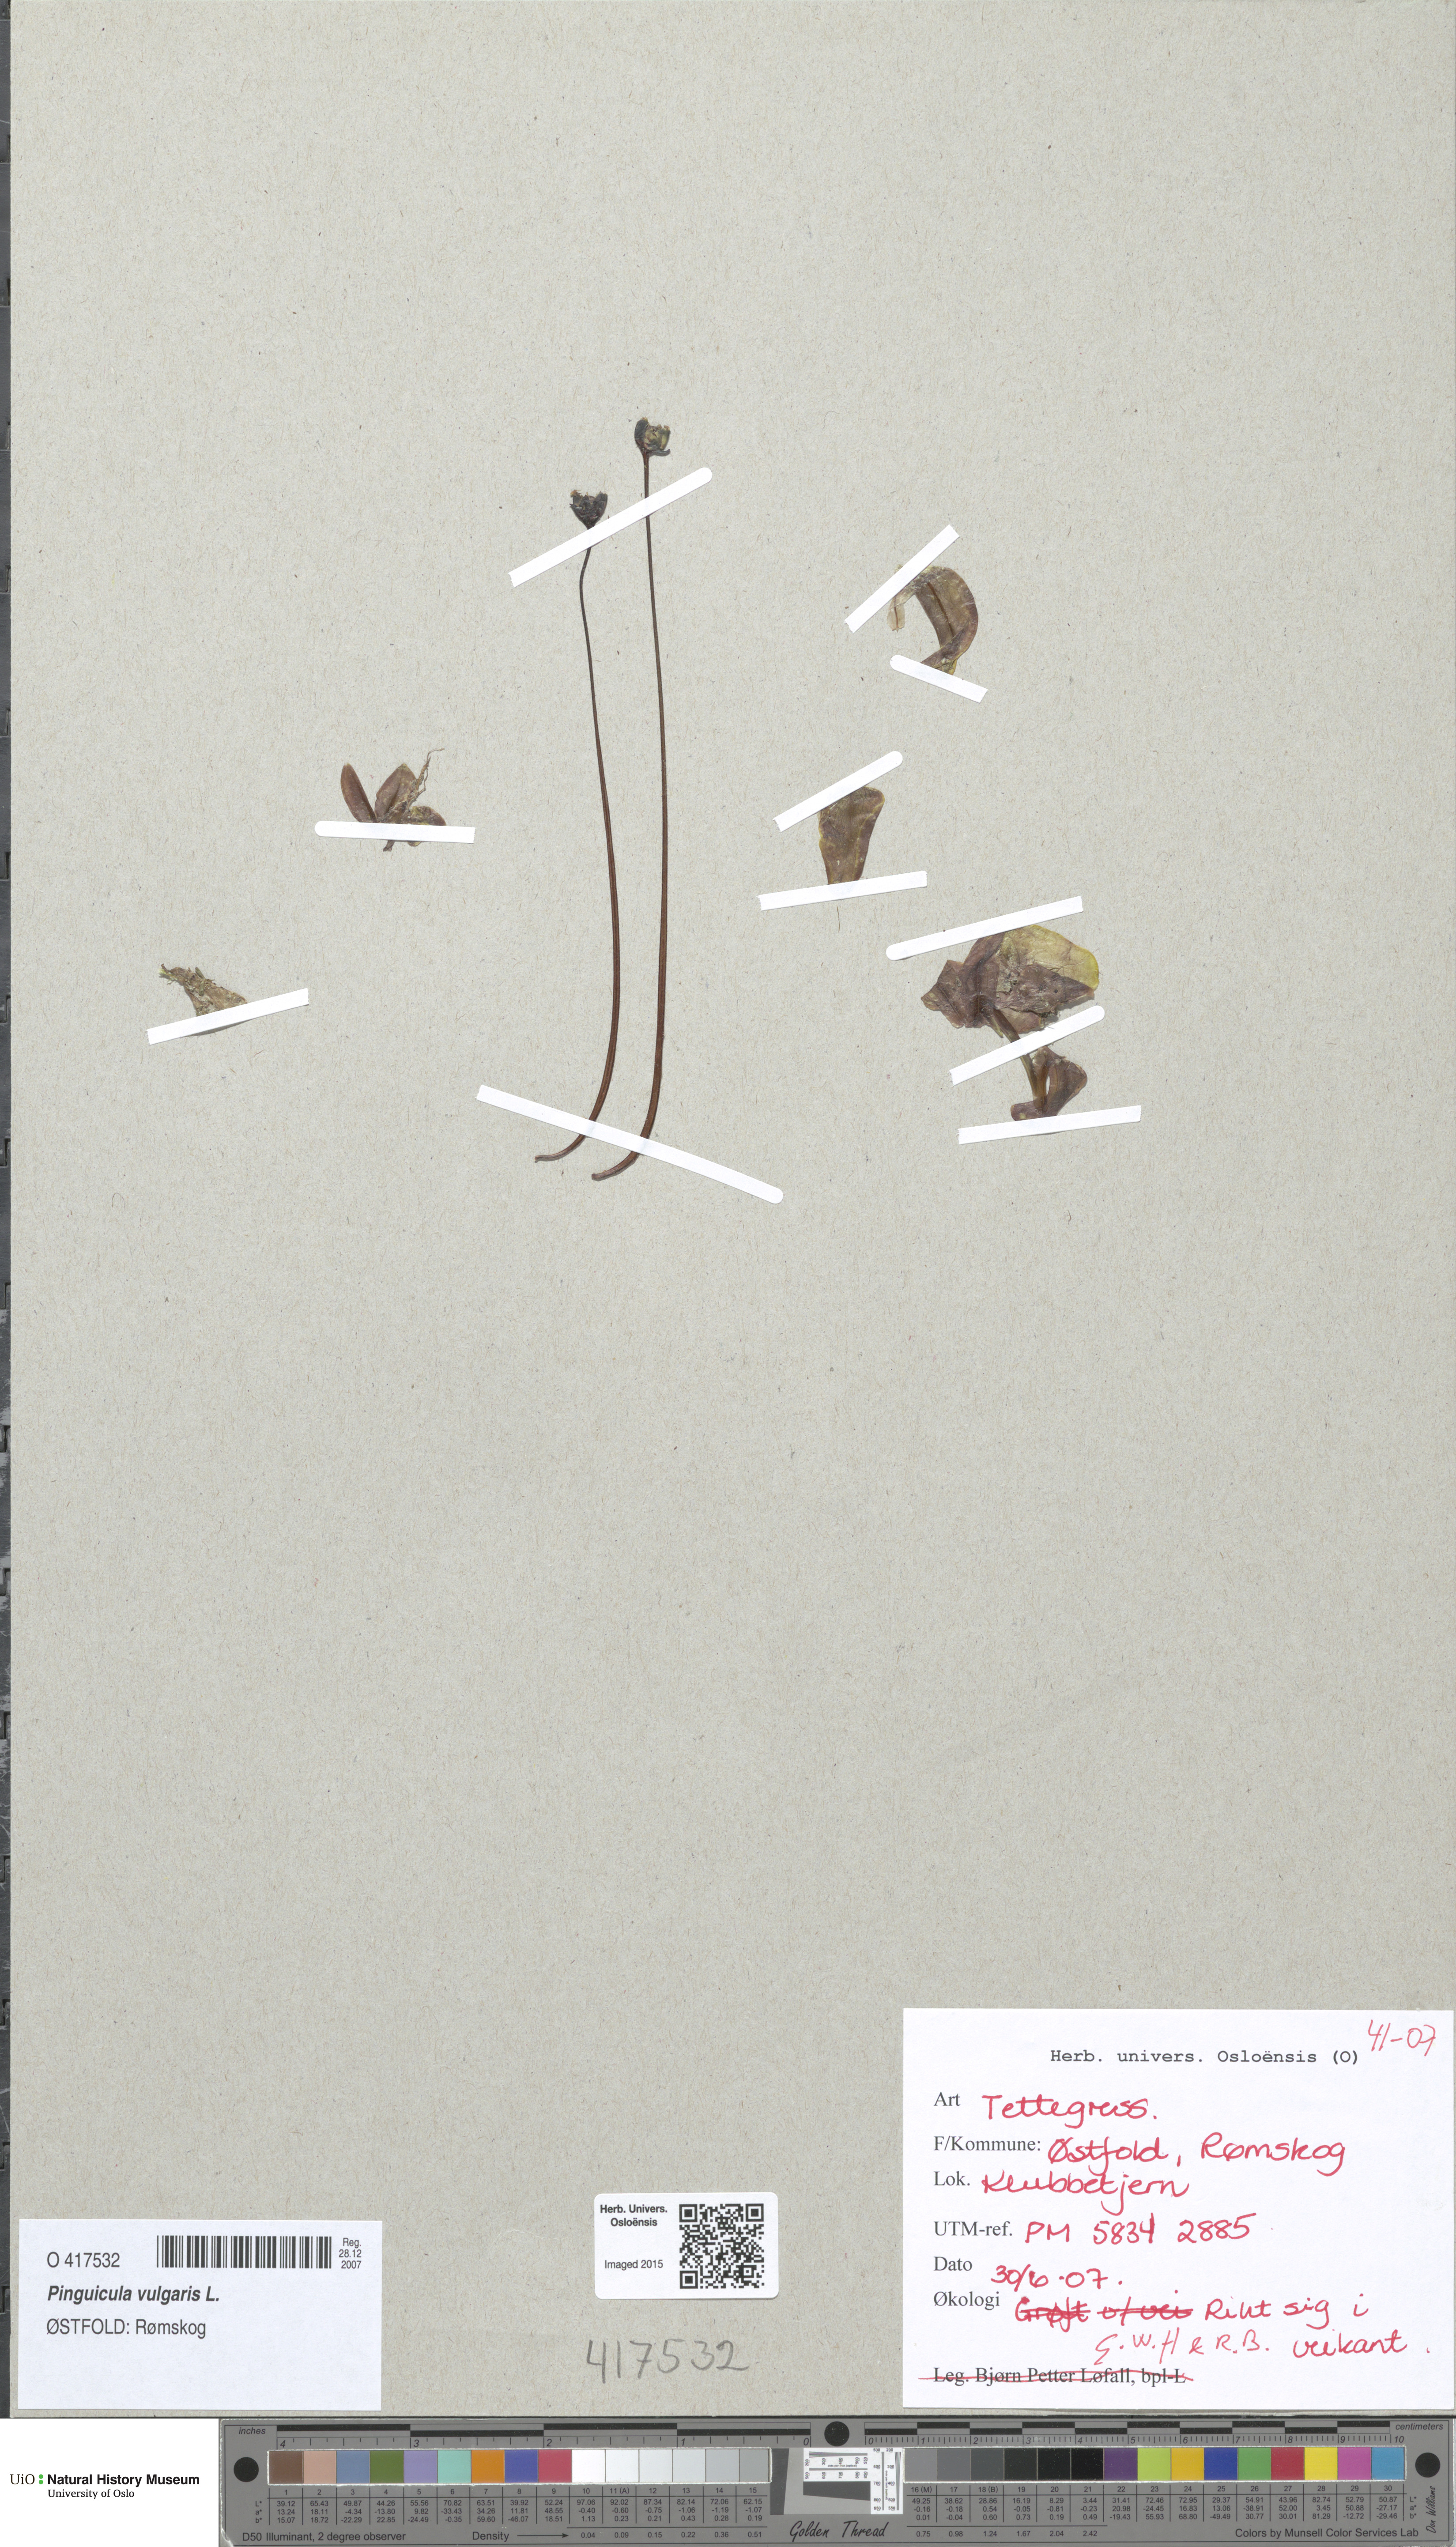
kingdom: Plantae
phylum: Tracheophyta
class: Magnoliopsida
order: Lamiales
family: Lentibulariaceae
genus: Pinguicula
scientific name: Pinguicula vulgaris
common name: Common butterwort
